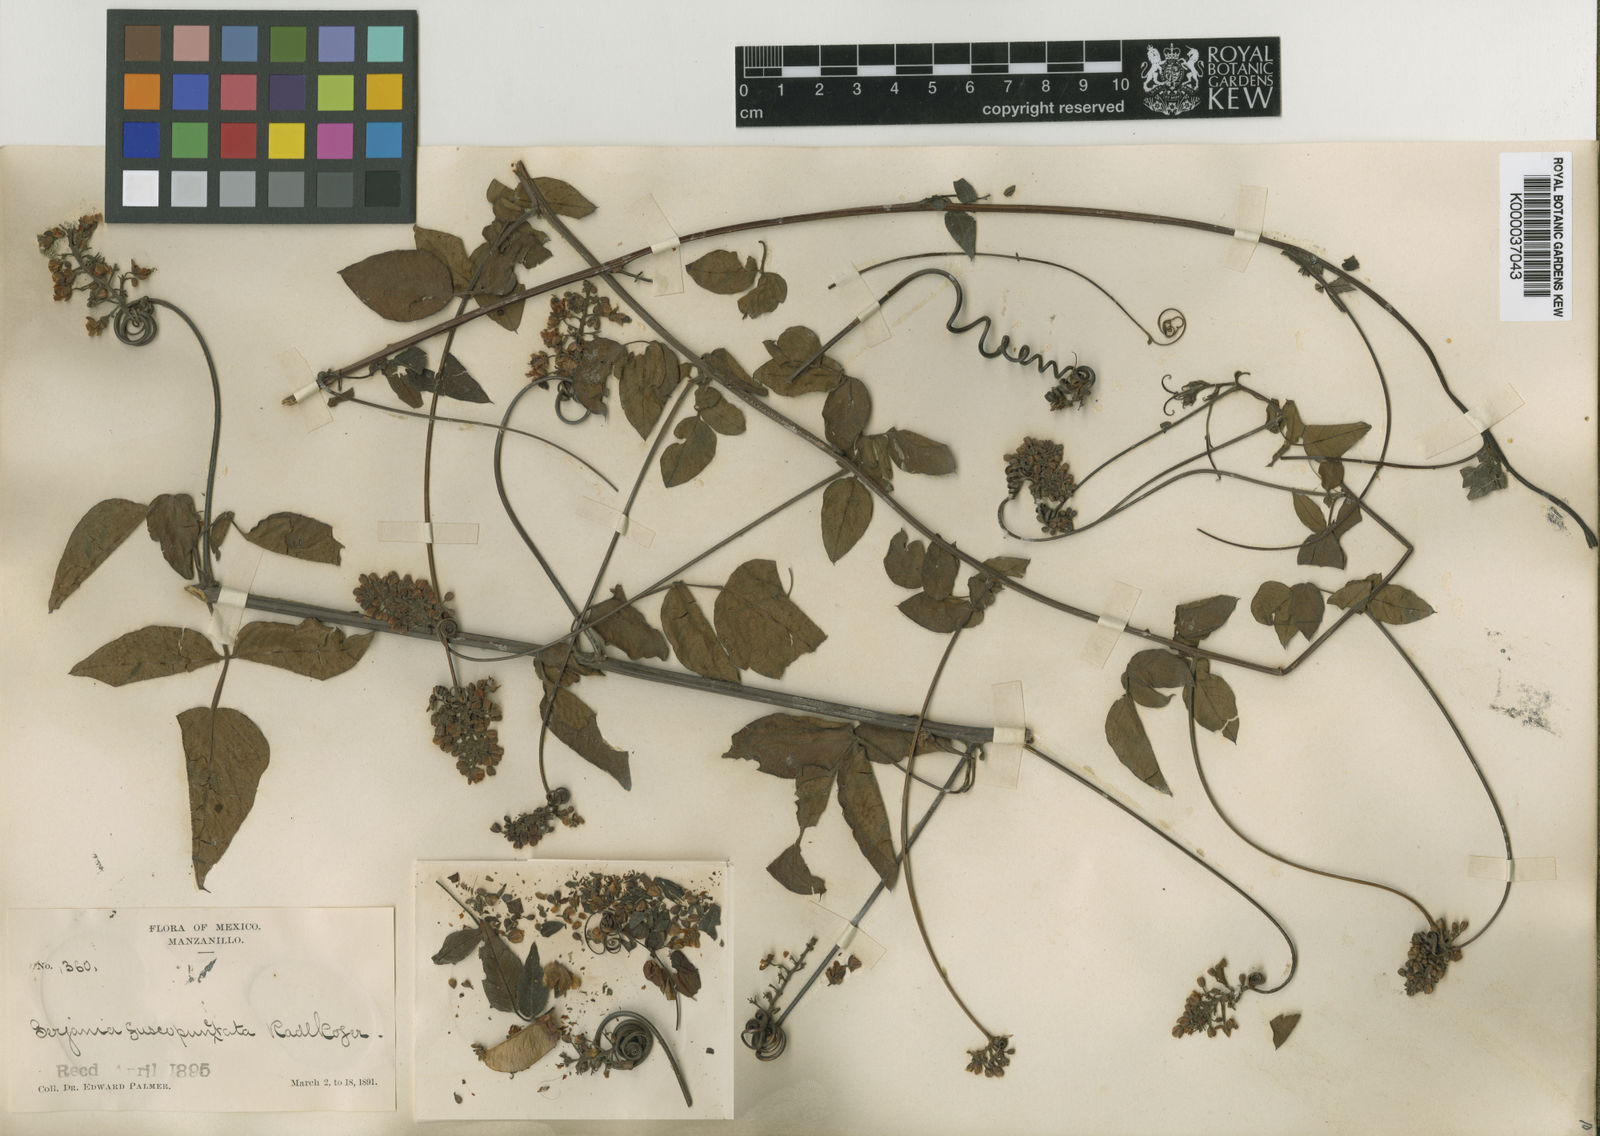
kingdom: Plantae
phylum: Tracheophyta
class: Magnoliopsida
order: Sapindales
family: Sapindaceae
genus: Serjania
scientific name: Serjania fuscopunctata
